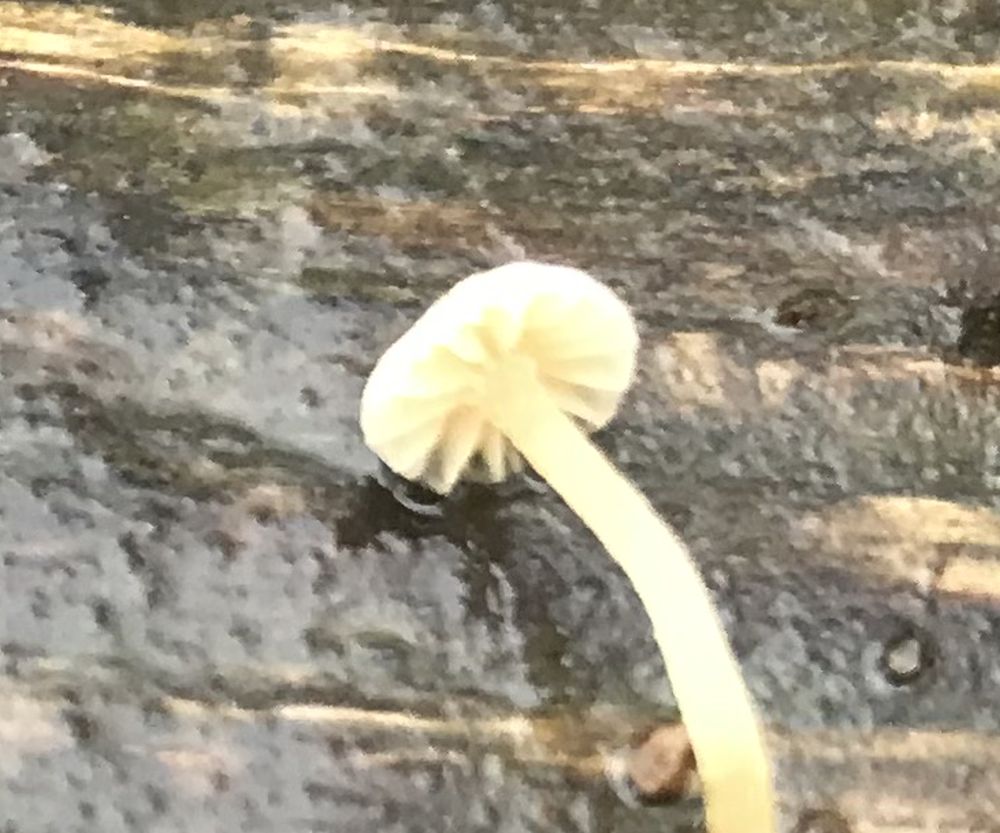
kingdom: Fungi
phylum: Basidiomycota
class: Agaricomycetes
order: Agaricales
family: Tubariaceae
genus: Flammulaster
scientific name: Flammulaster
